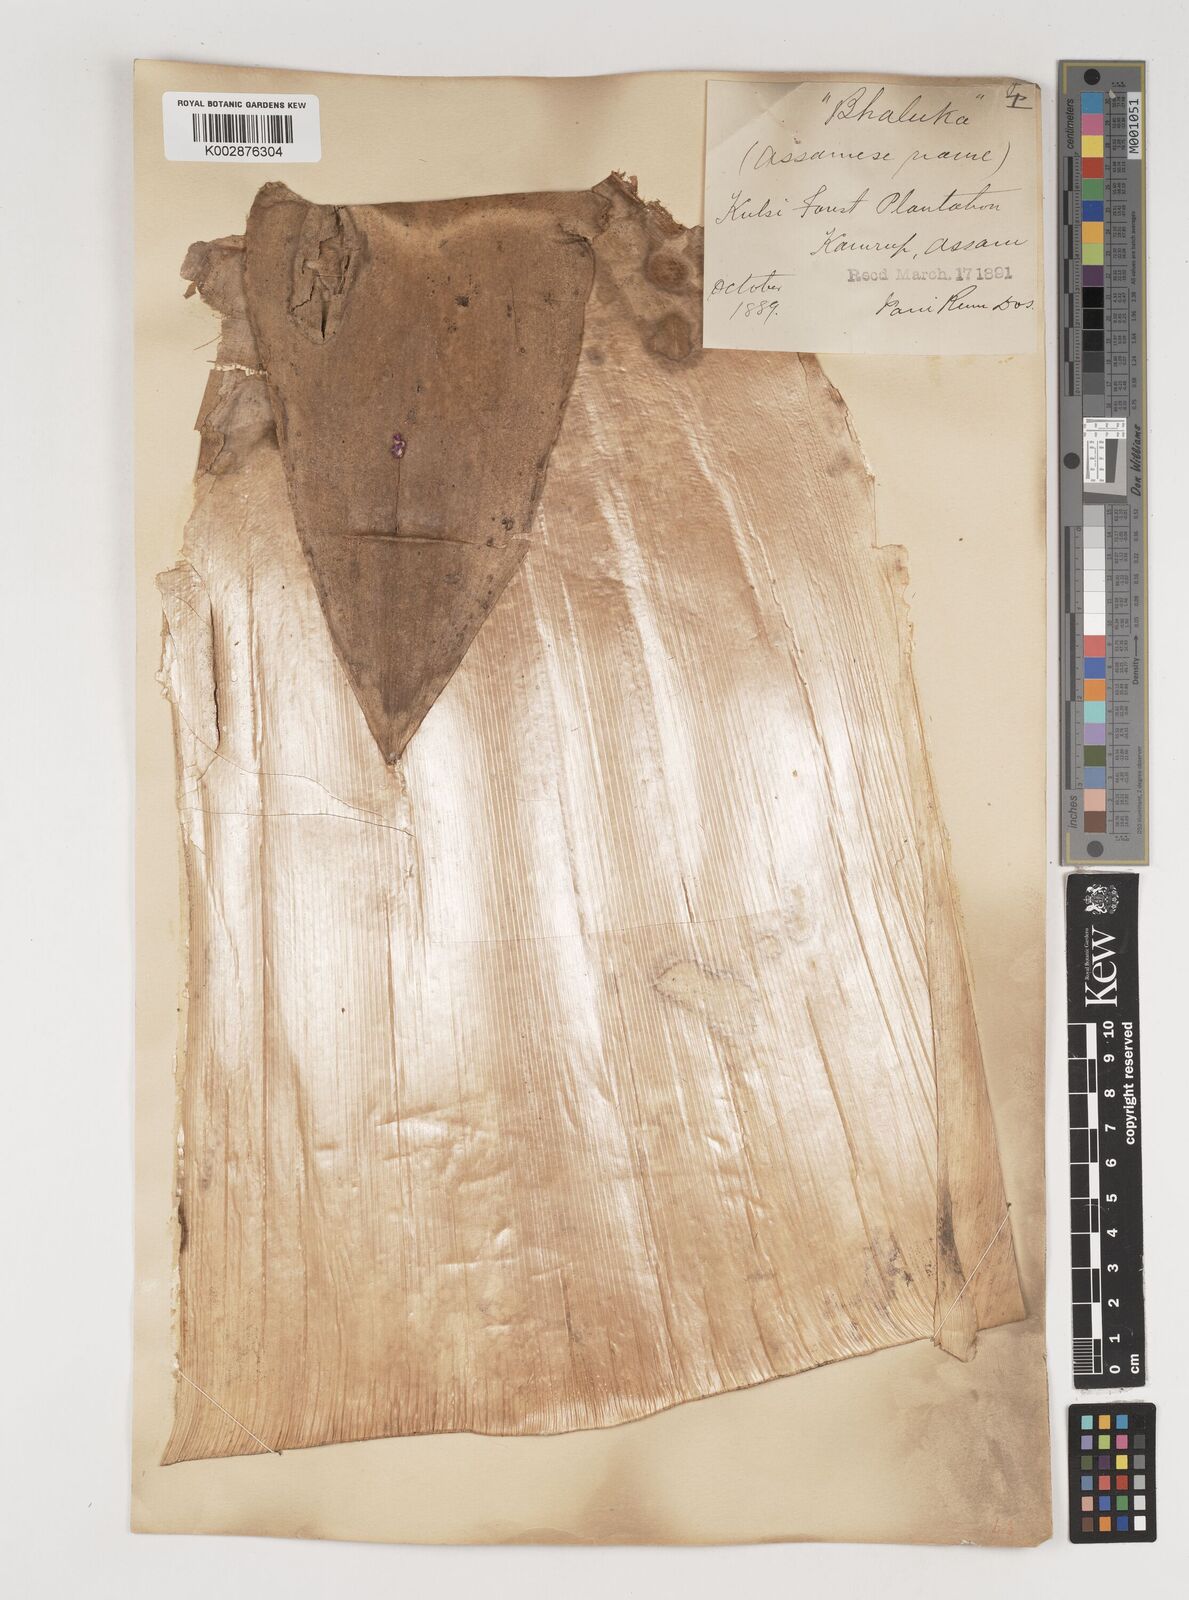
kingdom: Plantae
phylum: Tracheophyta
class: Liliopsida
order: Poales
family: Poaceae
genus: Bambusa
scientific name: Bambusa balcooa
